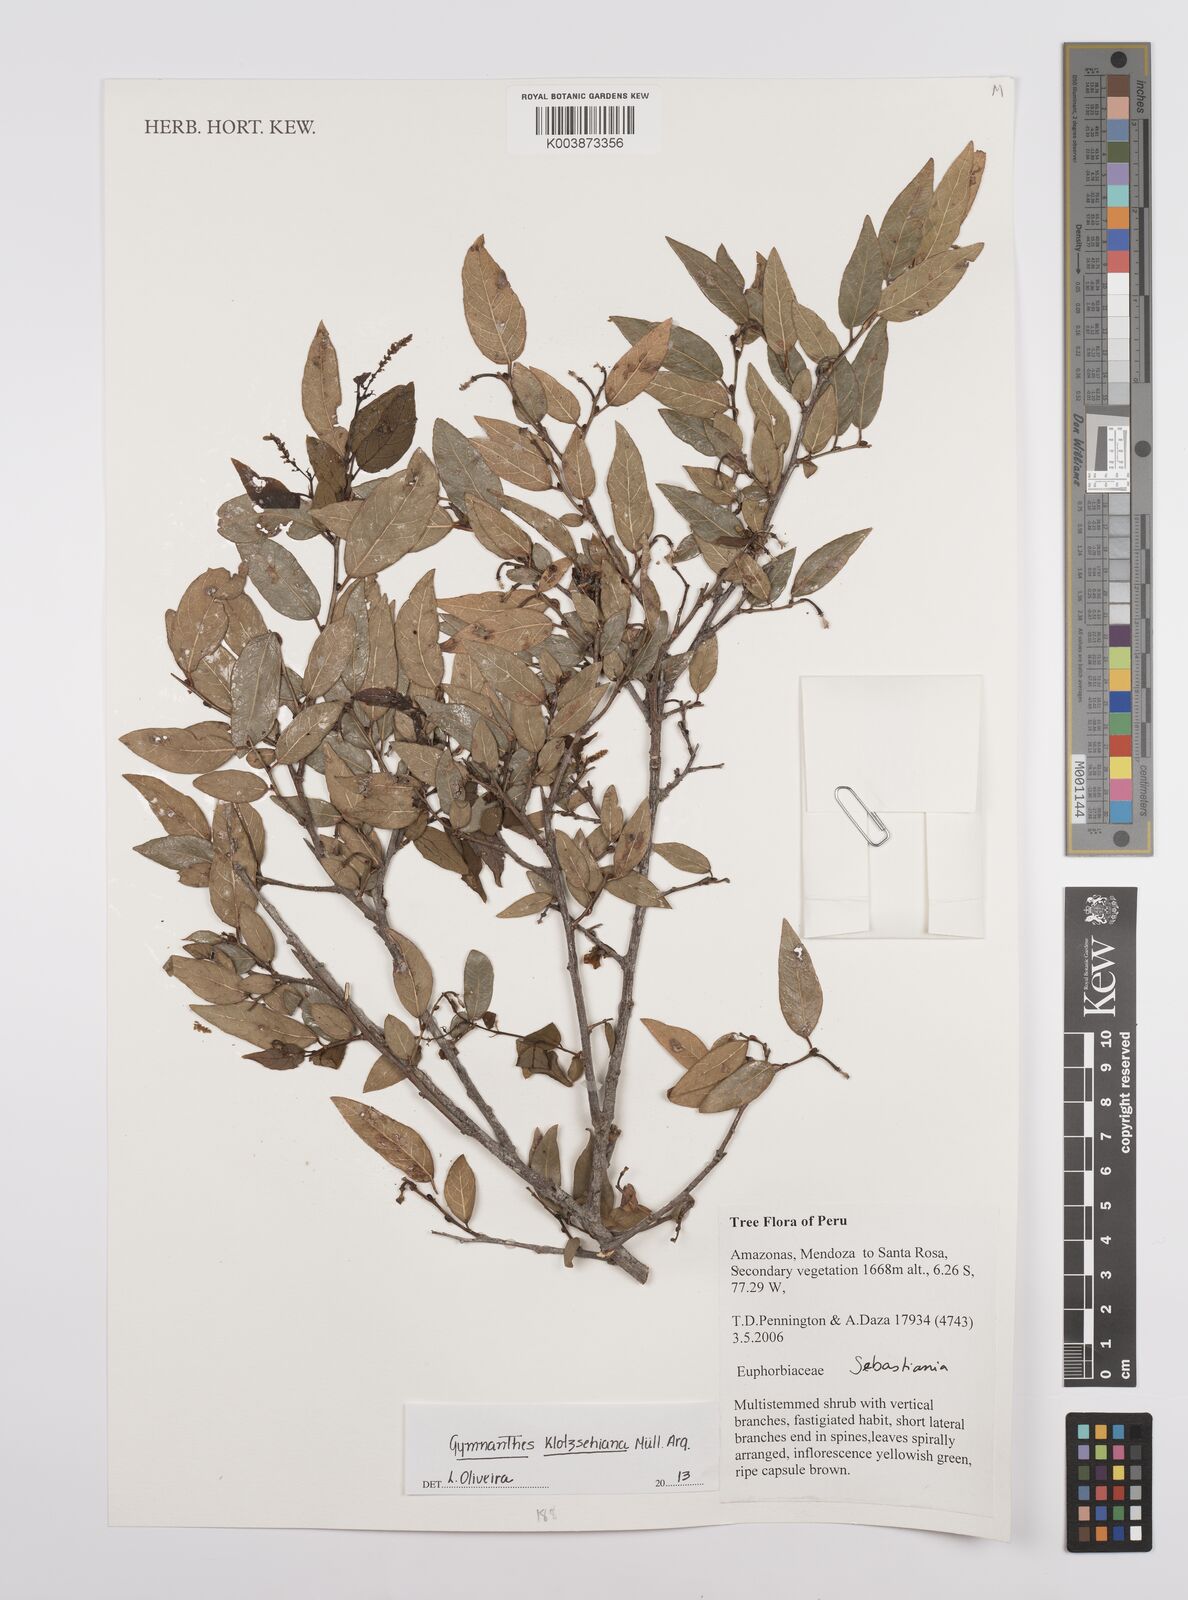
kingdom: Plantae
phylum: Tracheophyta
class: Magnoliopsida
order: Malpighiales
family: Euphorbiaceae
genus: Sebastiania
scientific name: Sebastiania klotzschiana
